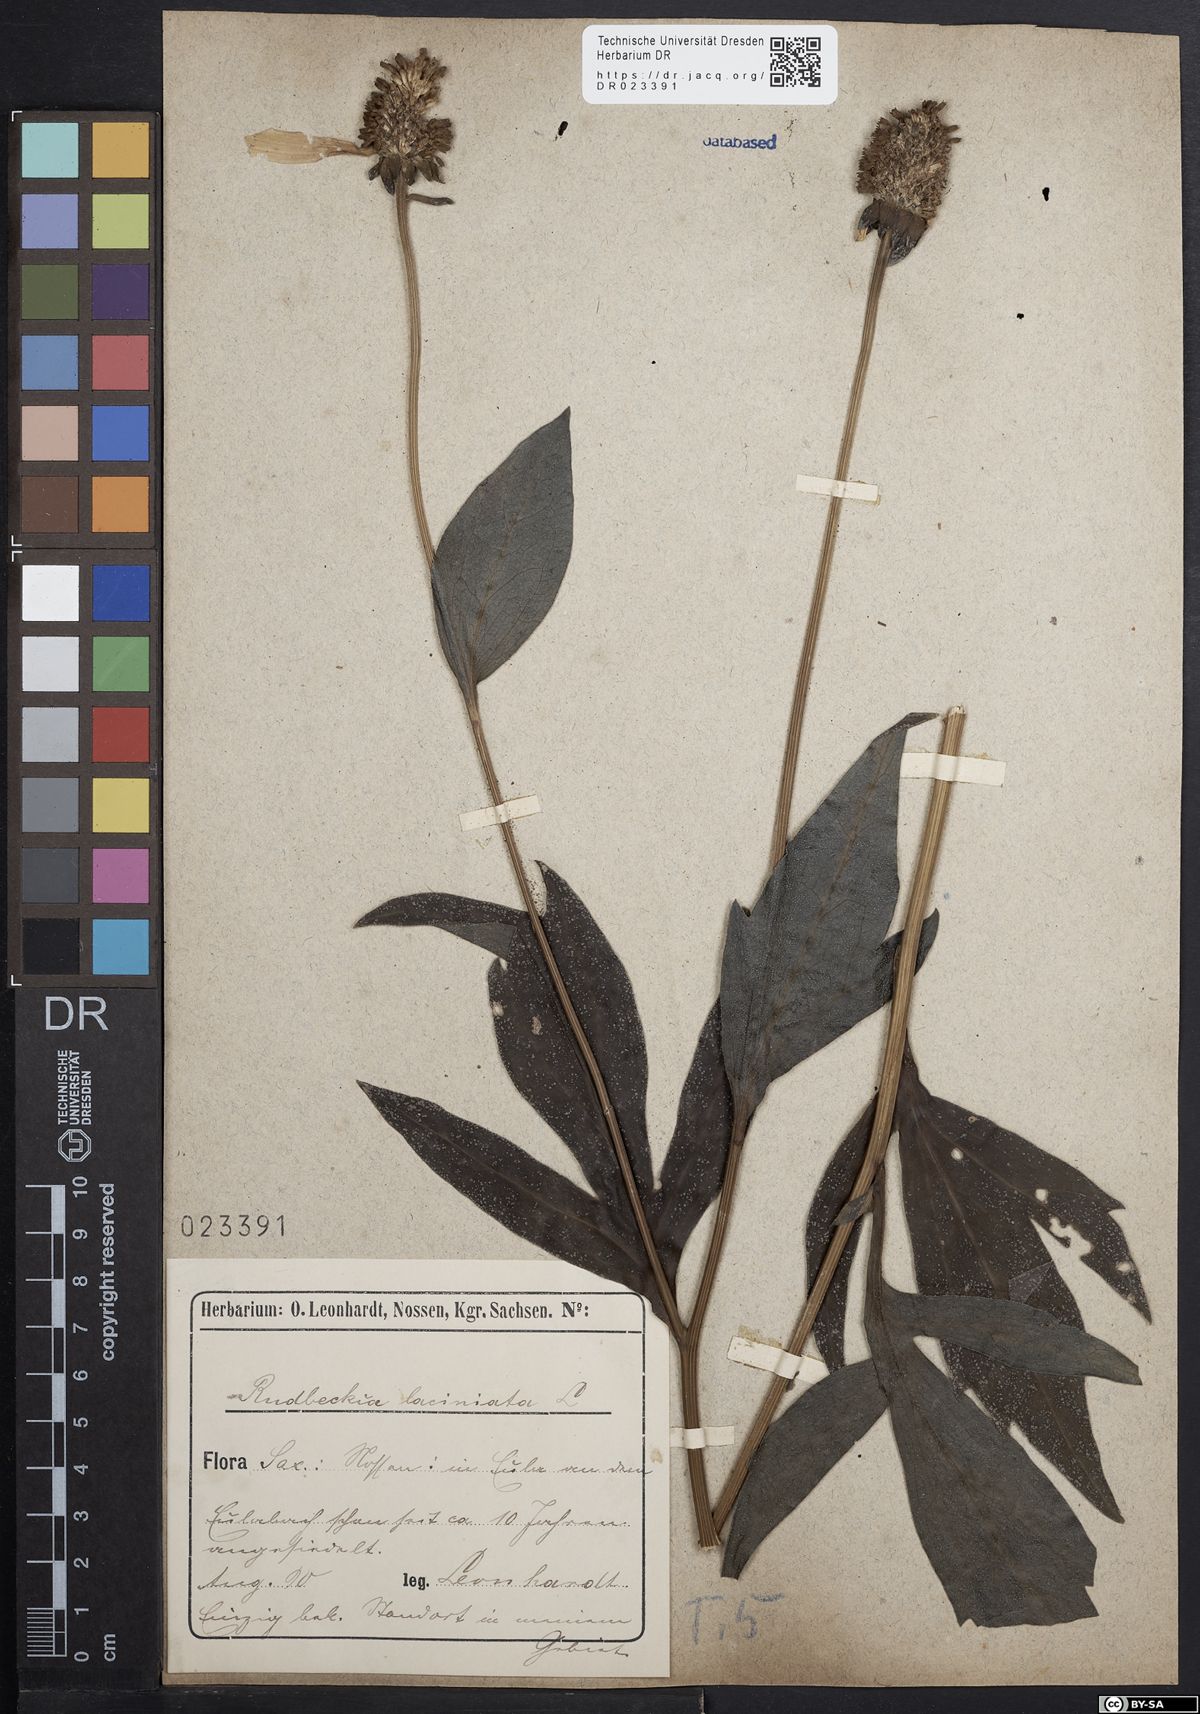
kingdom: Plantae
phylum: Tracheophyta
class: Magnoliopsida
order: Asterales
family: Asteraceae
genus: Rudbeckia
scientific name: Rudbeckia laciniata
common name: Coneflower
